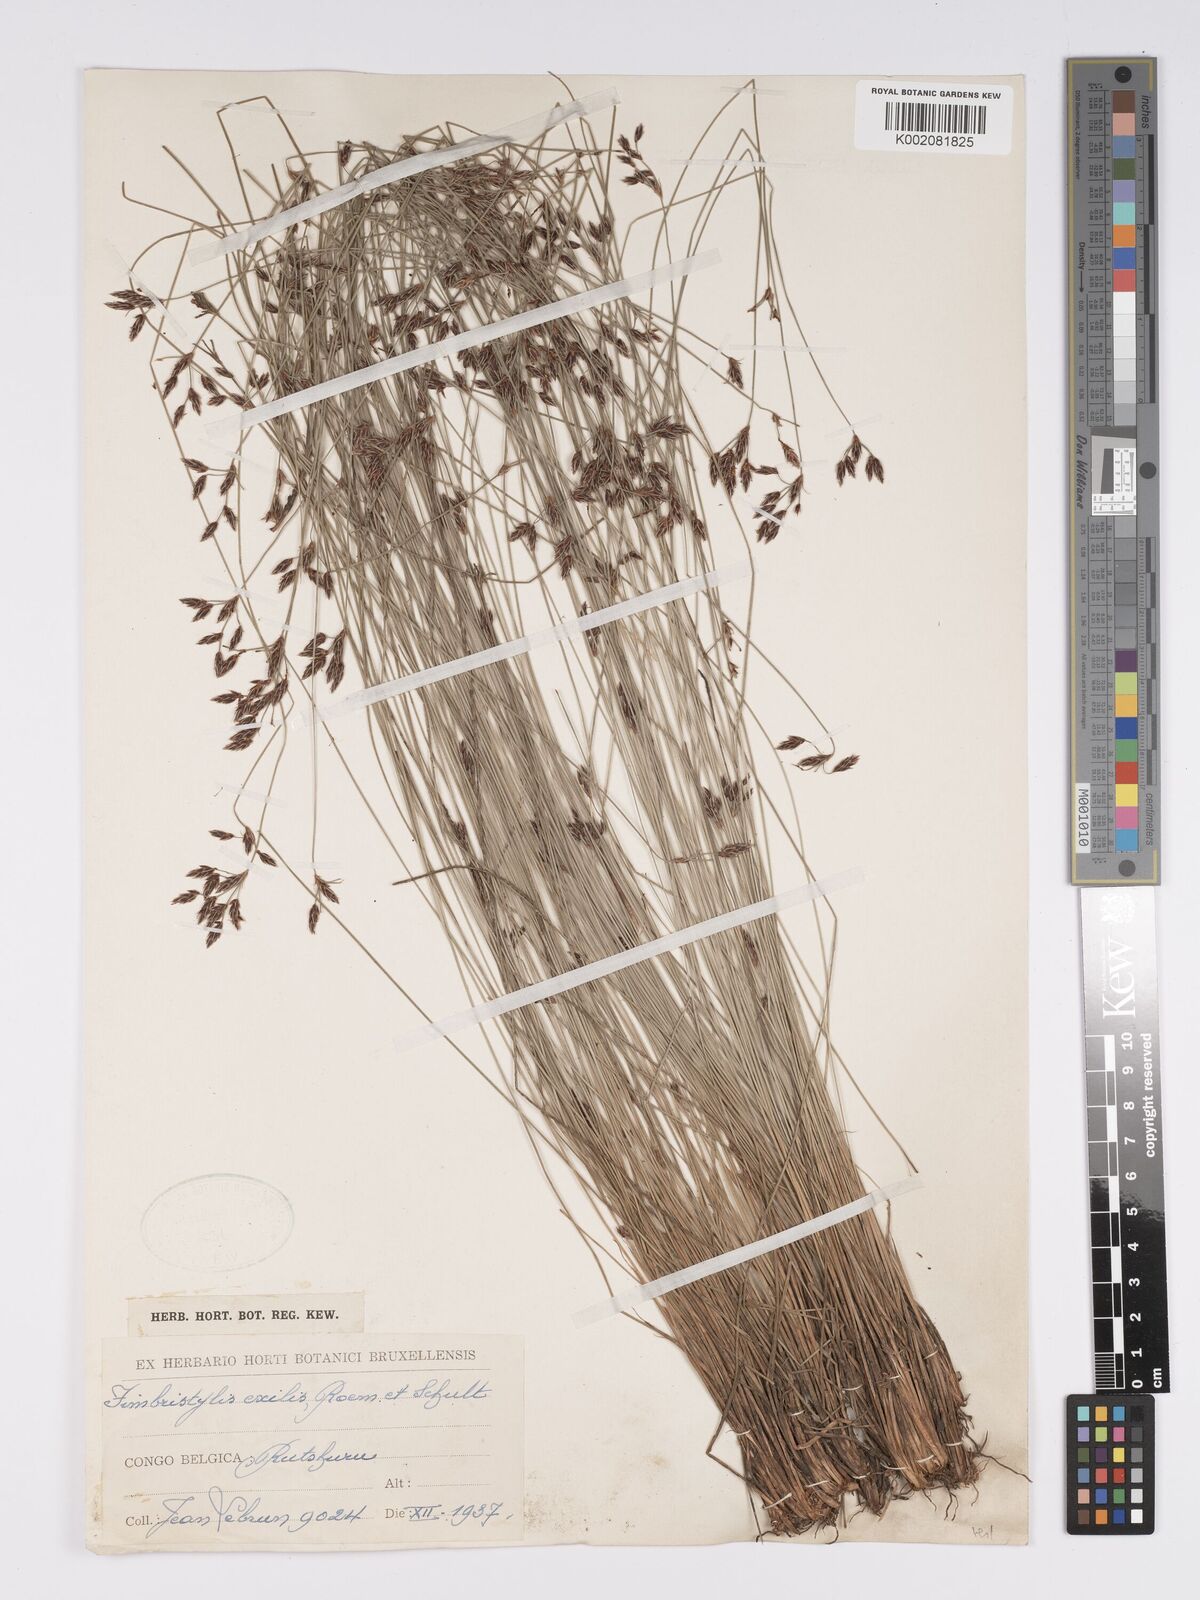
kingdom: Plantae
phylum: Tracheophyta
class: Liliopsida
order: Poales
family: Cyperaceae
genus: Bulbostylis
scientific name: Bulbostylis hispidula
